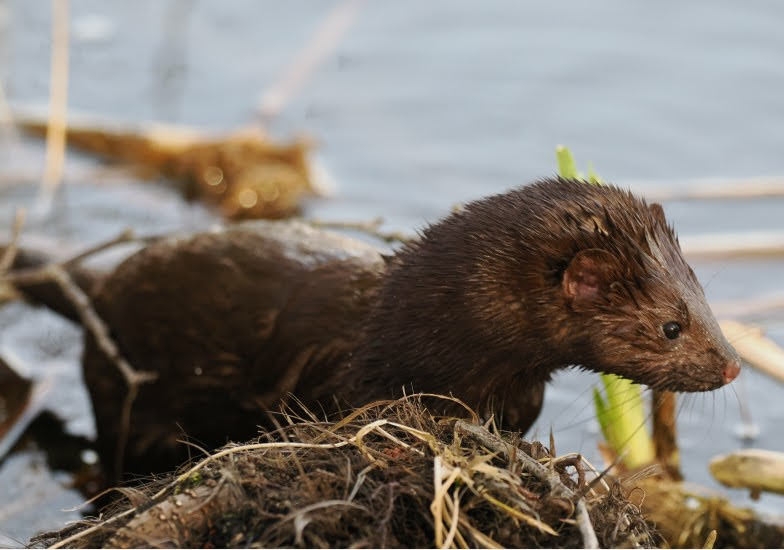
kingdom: Animalia
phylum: Chordata
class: Mammalia
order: Carnivora
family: Mustelidae
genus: Mustela
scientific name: Mustela vison
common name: Mink
